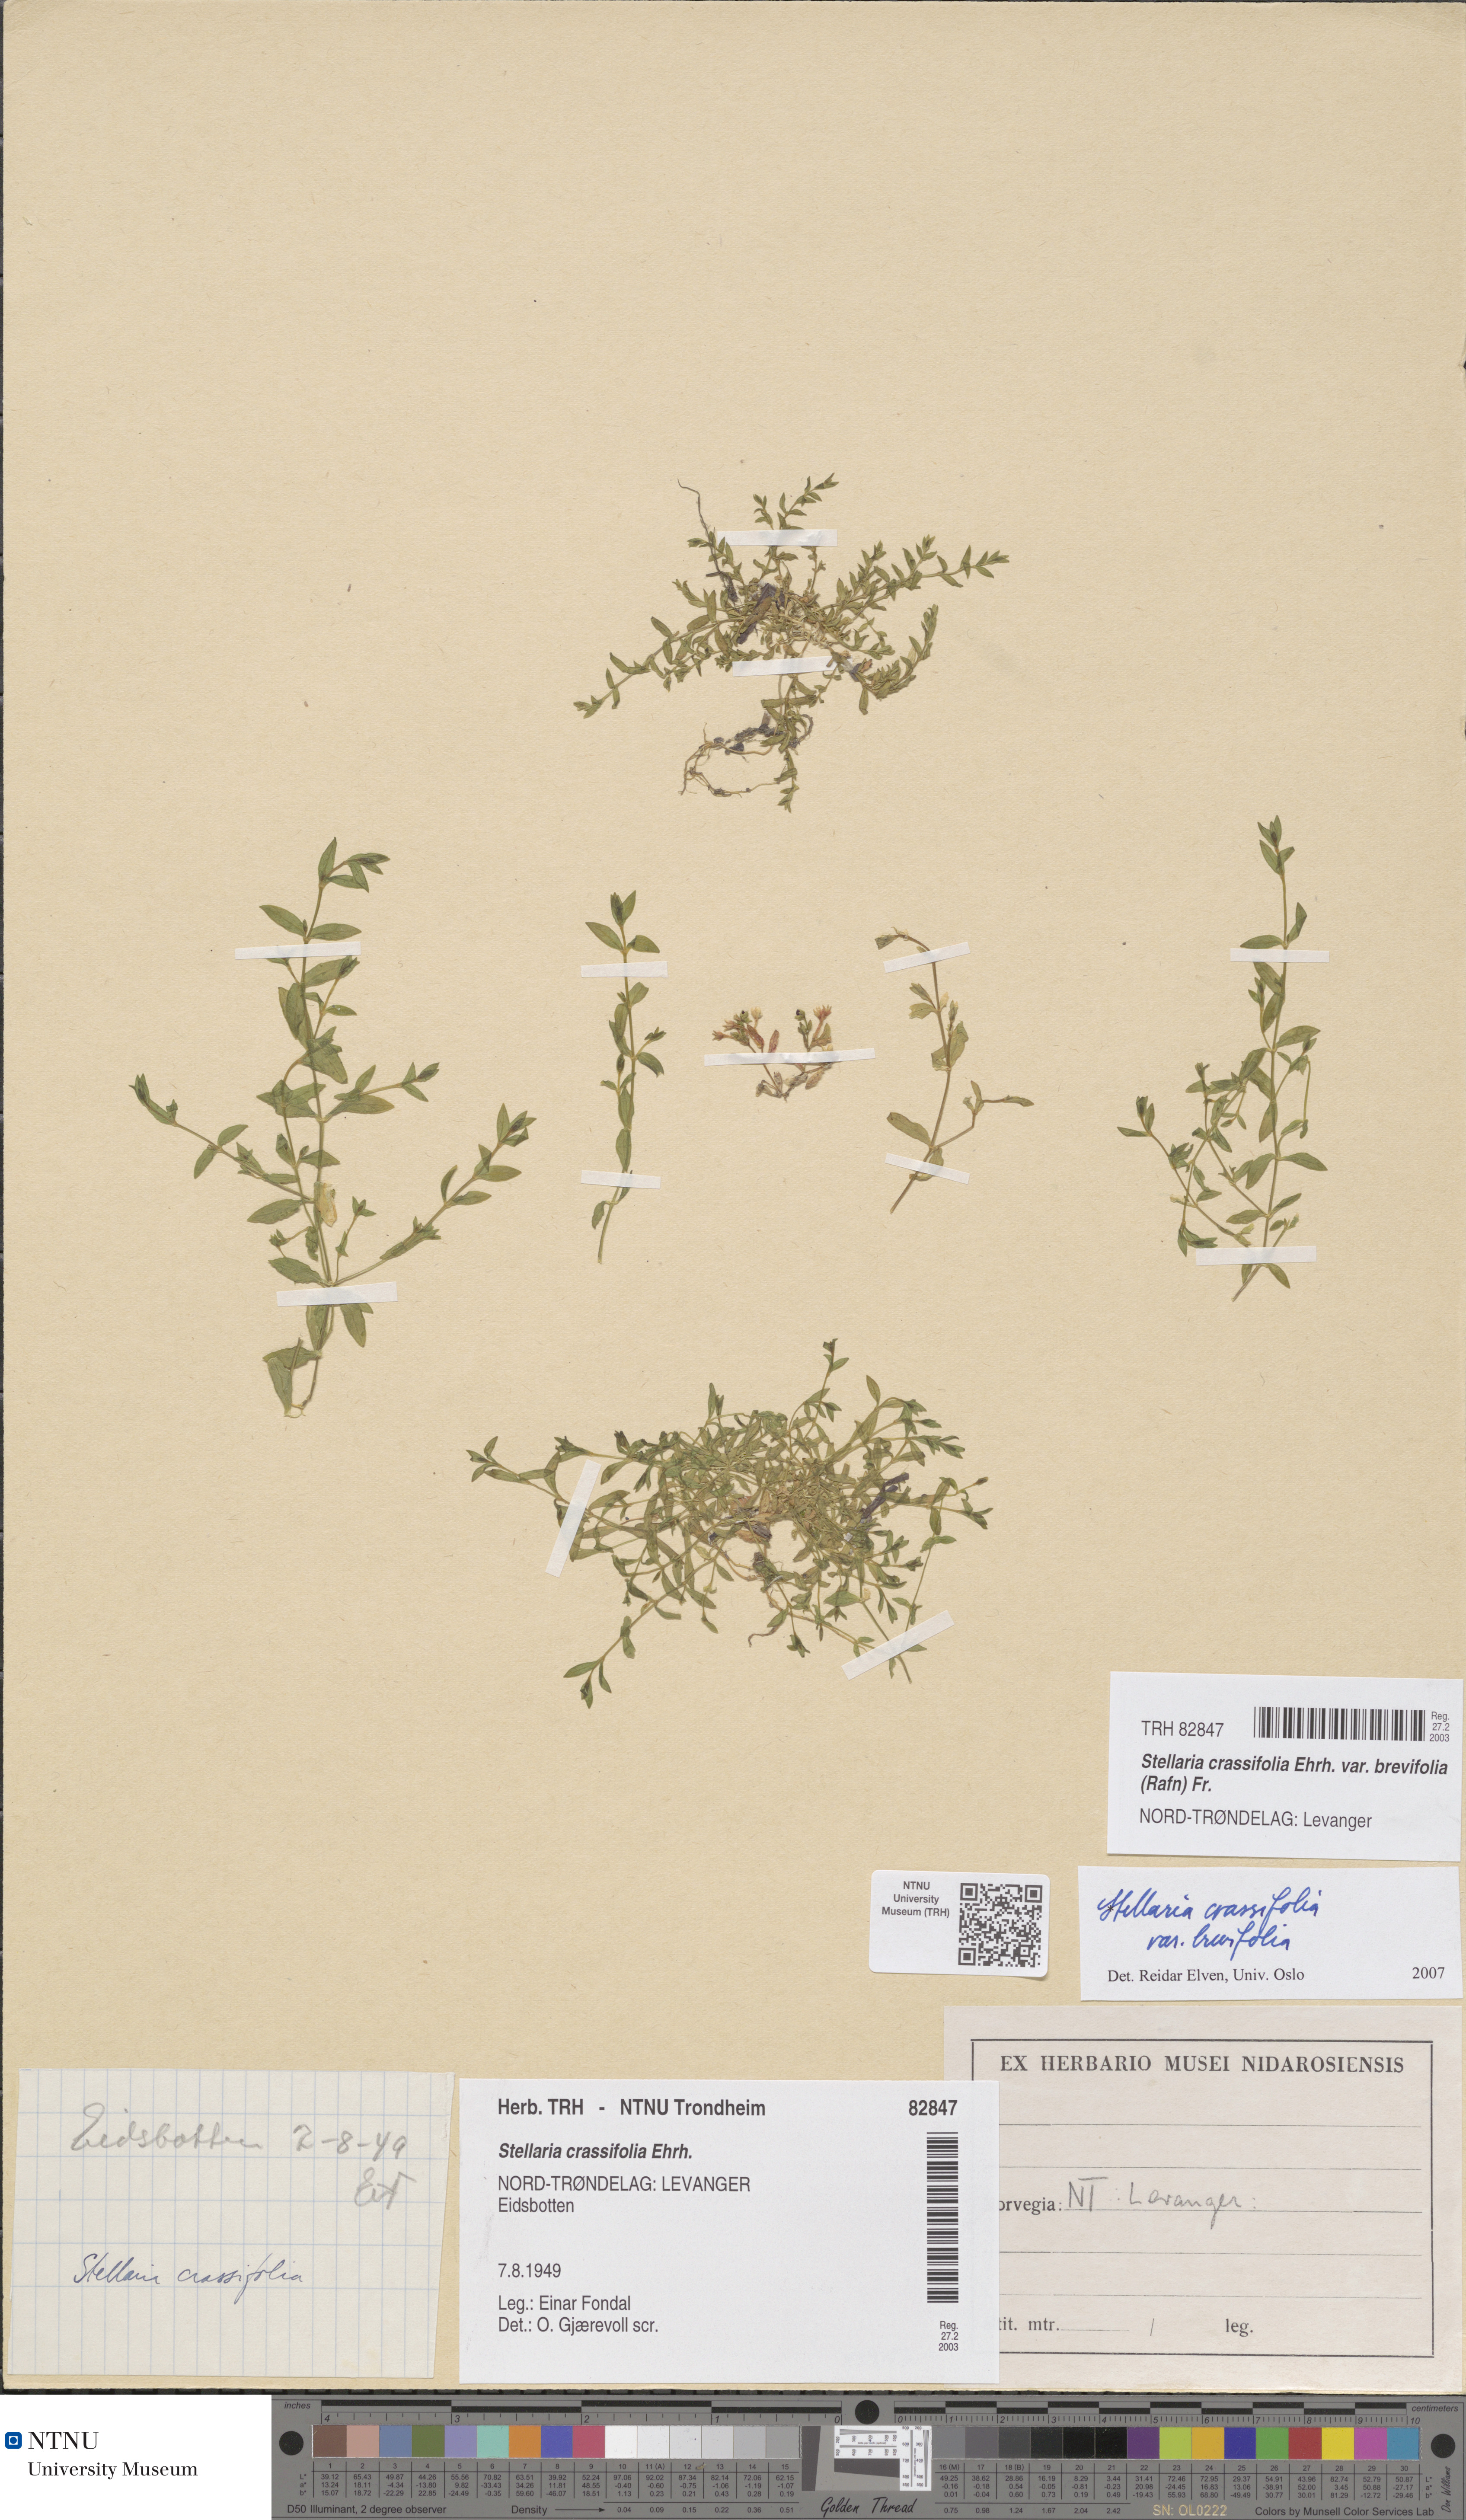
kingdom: Plantae
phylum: Tracheophyta
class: Magnoliopsida
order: Caryophyllales
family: Caryophyllaceae
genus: Stellaria
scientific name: Stellaria crassifolia
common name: Fleshy starwort
